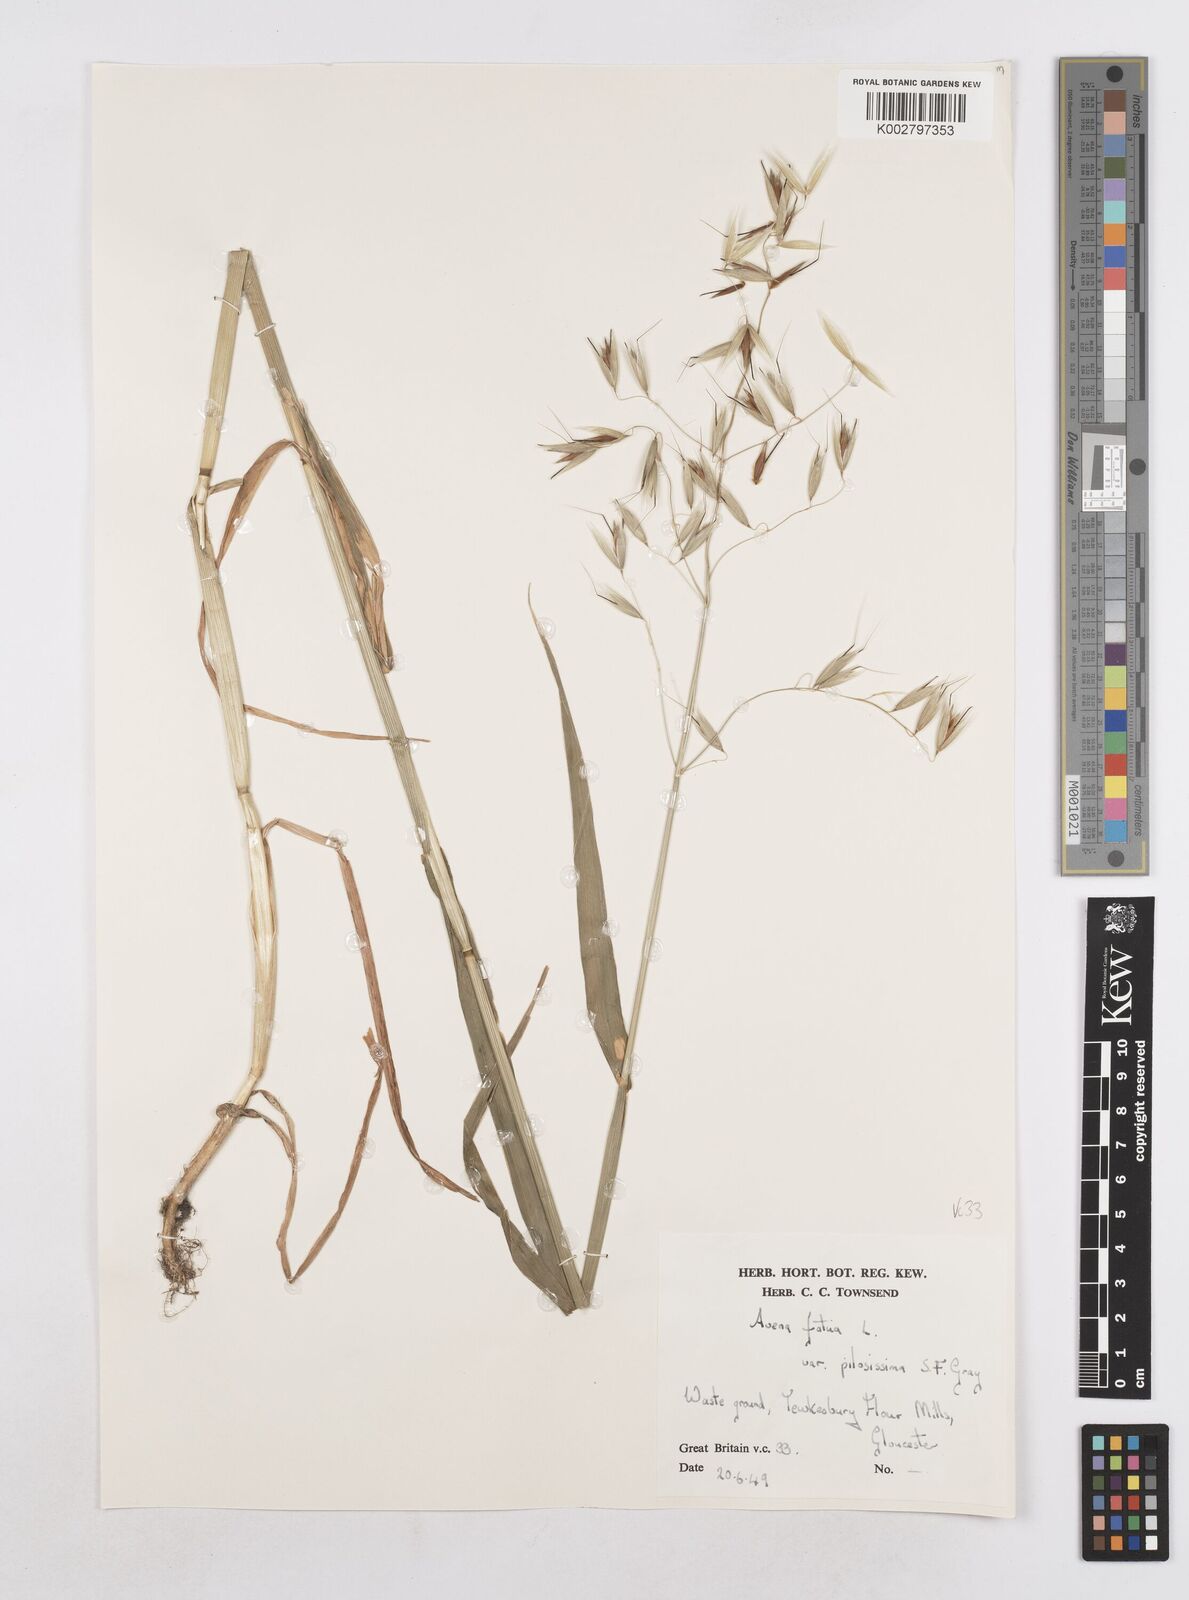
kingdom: Plantae
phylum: Tracheophyta
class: Liliopsida
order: Poales
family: Poaceae
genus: Avena
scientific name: Avena fatua
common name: Wild oat
